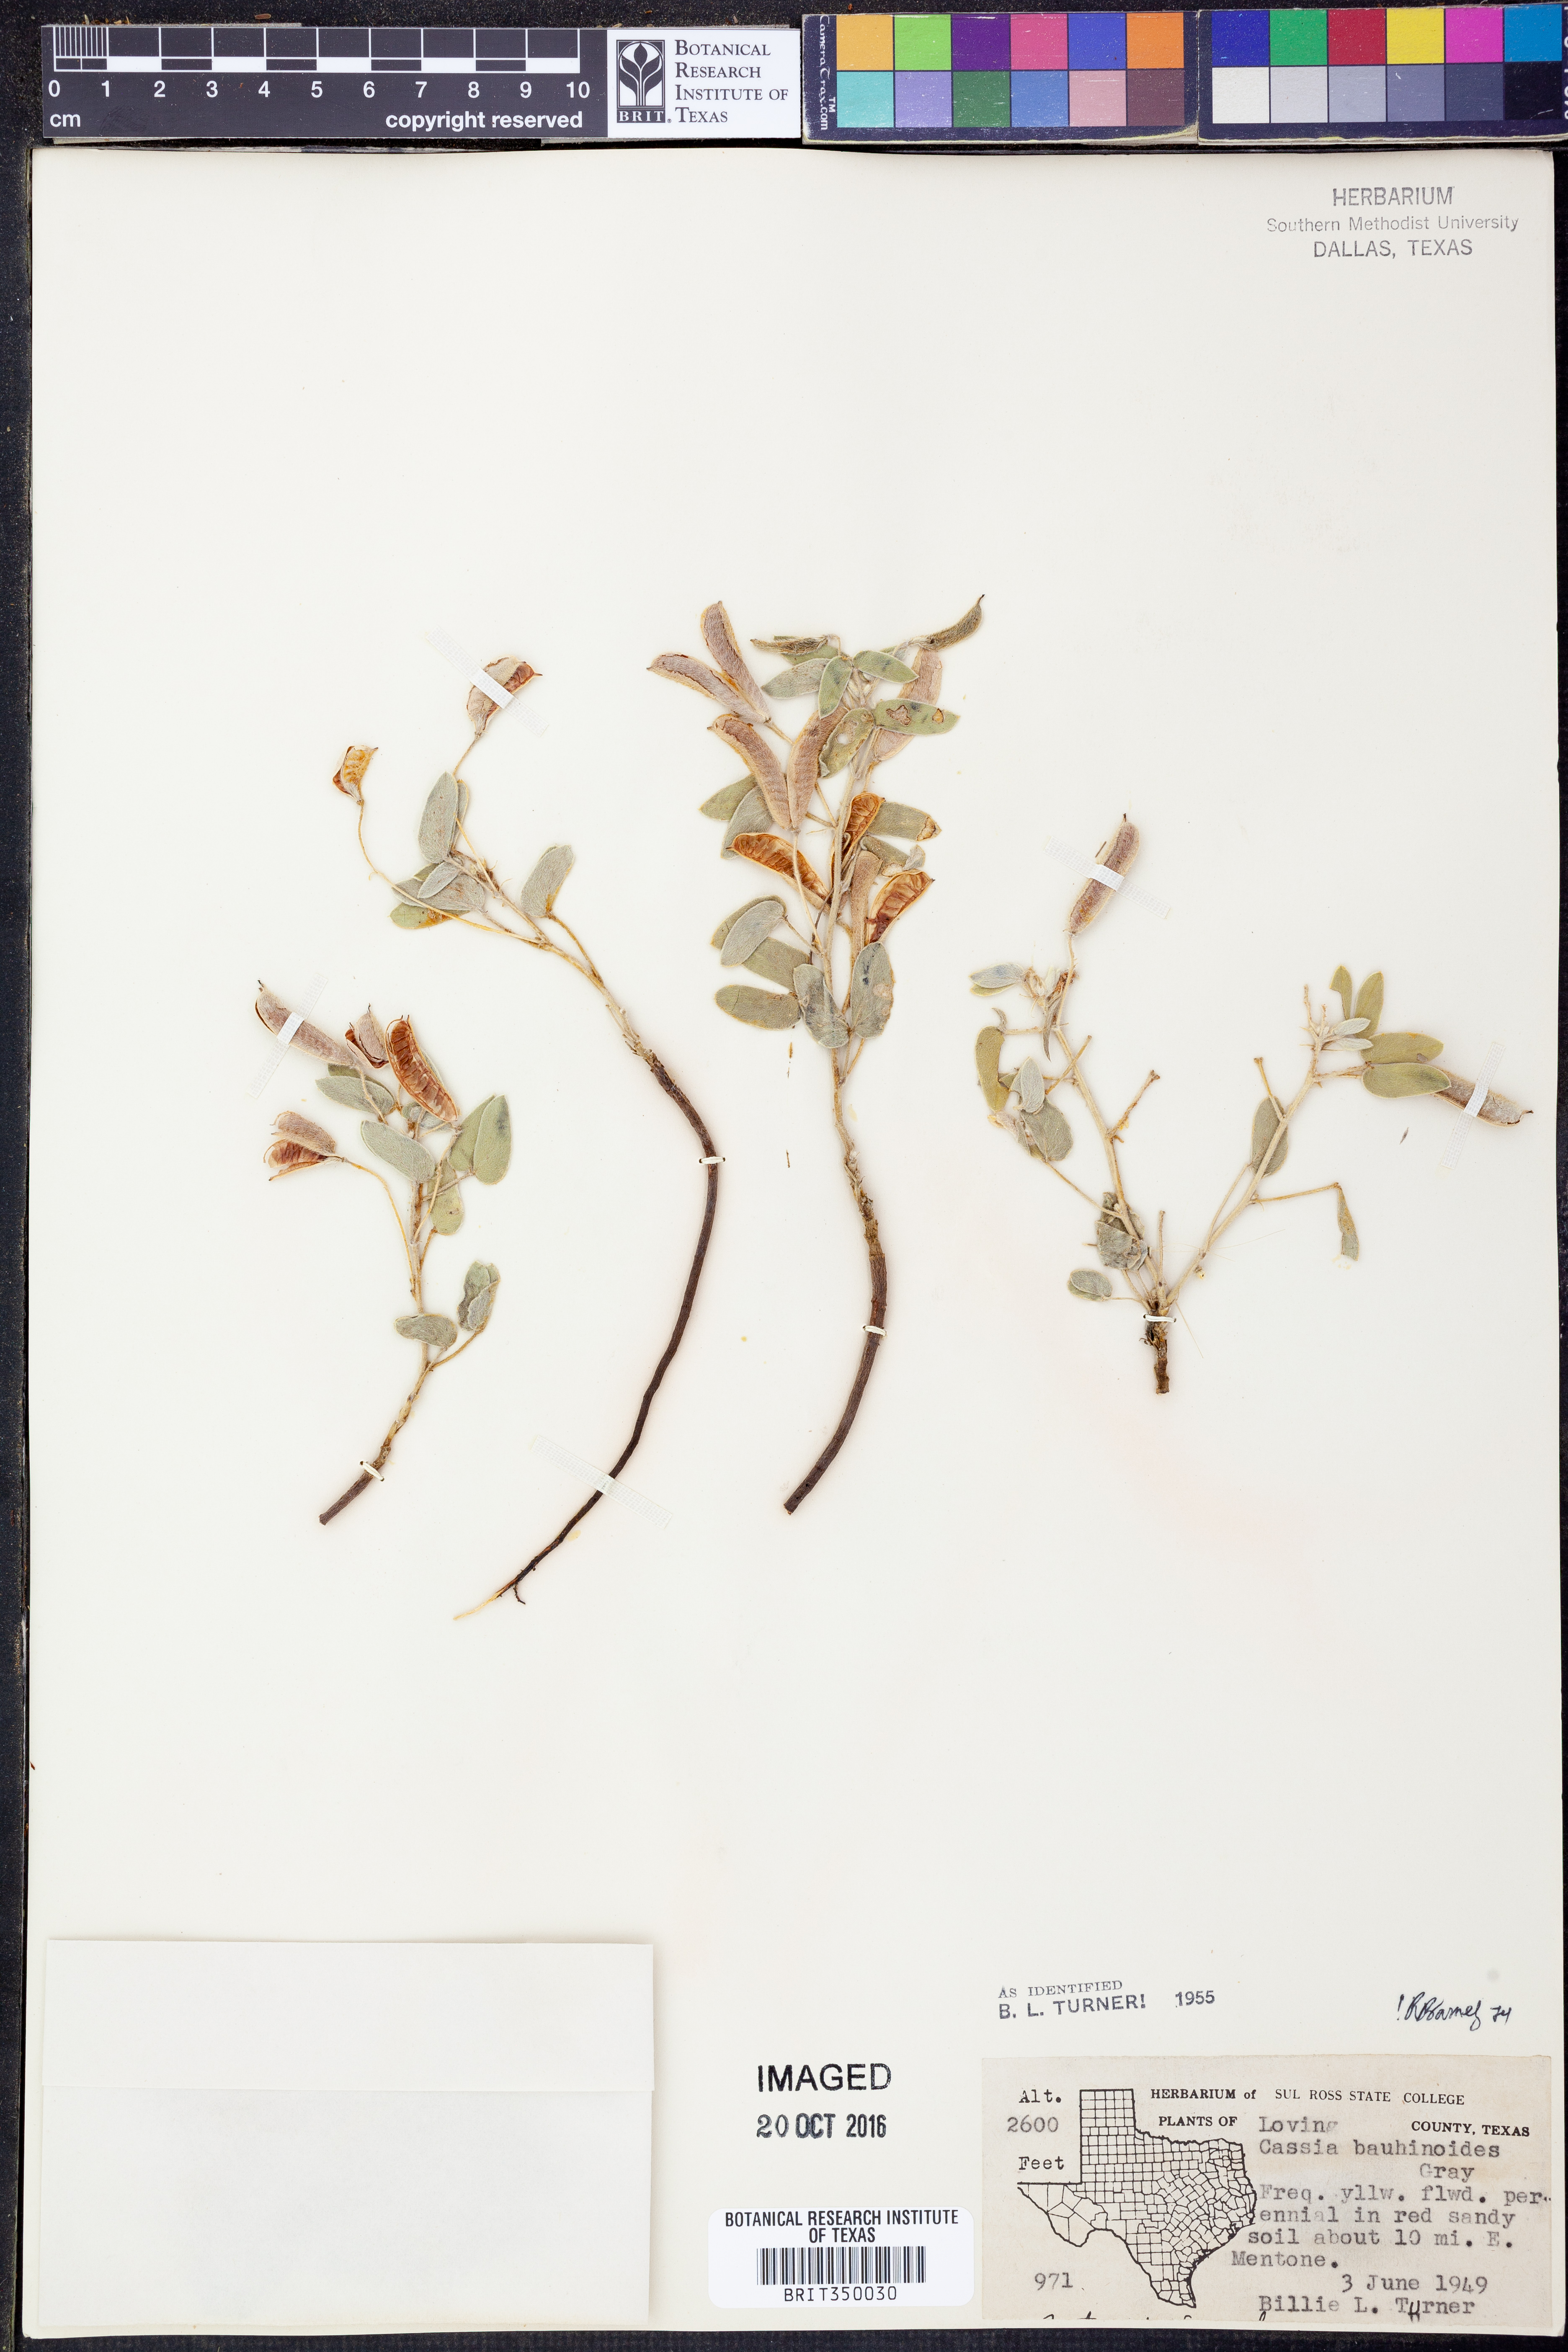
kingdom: Plantae
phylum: Tracheophyta
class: Magnoliopsida
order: Fabales
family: Fabaceae
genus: Senna
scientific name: Senna bauhinioides
